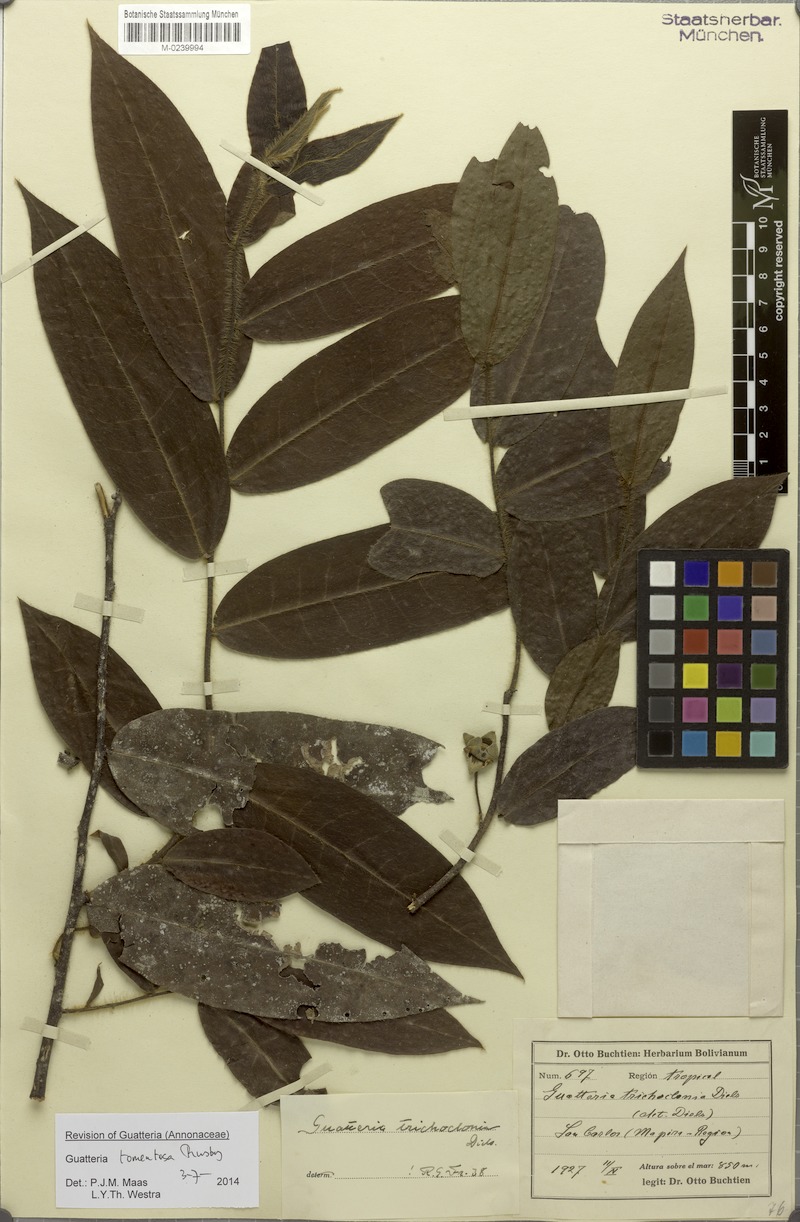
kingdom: Plantae
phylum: Tracheophyta
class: Magnoliopsida
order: Magnoliales
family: Annonaceae
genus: Guatteria
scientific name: Guatteria tomentosa
